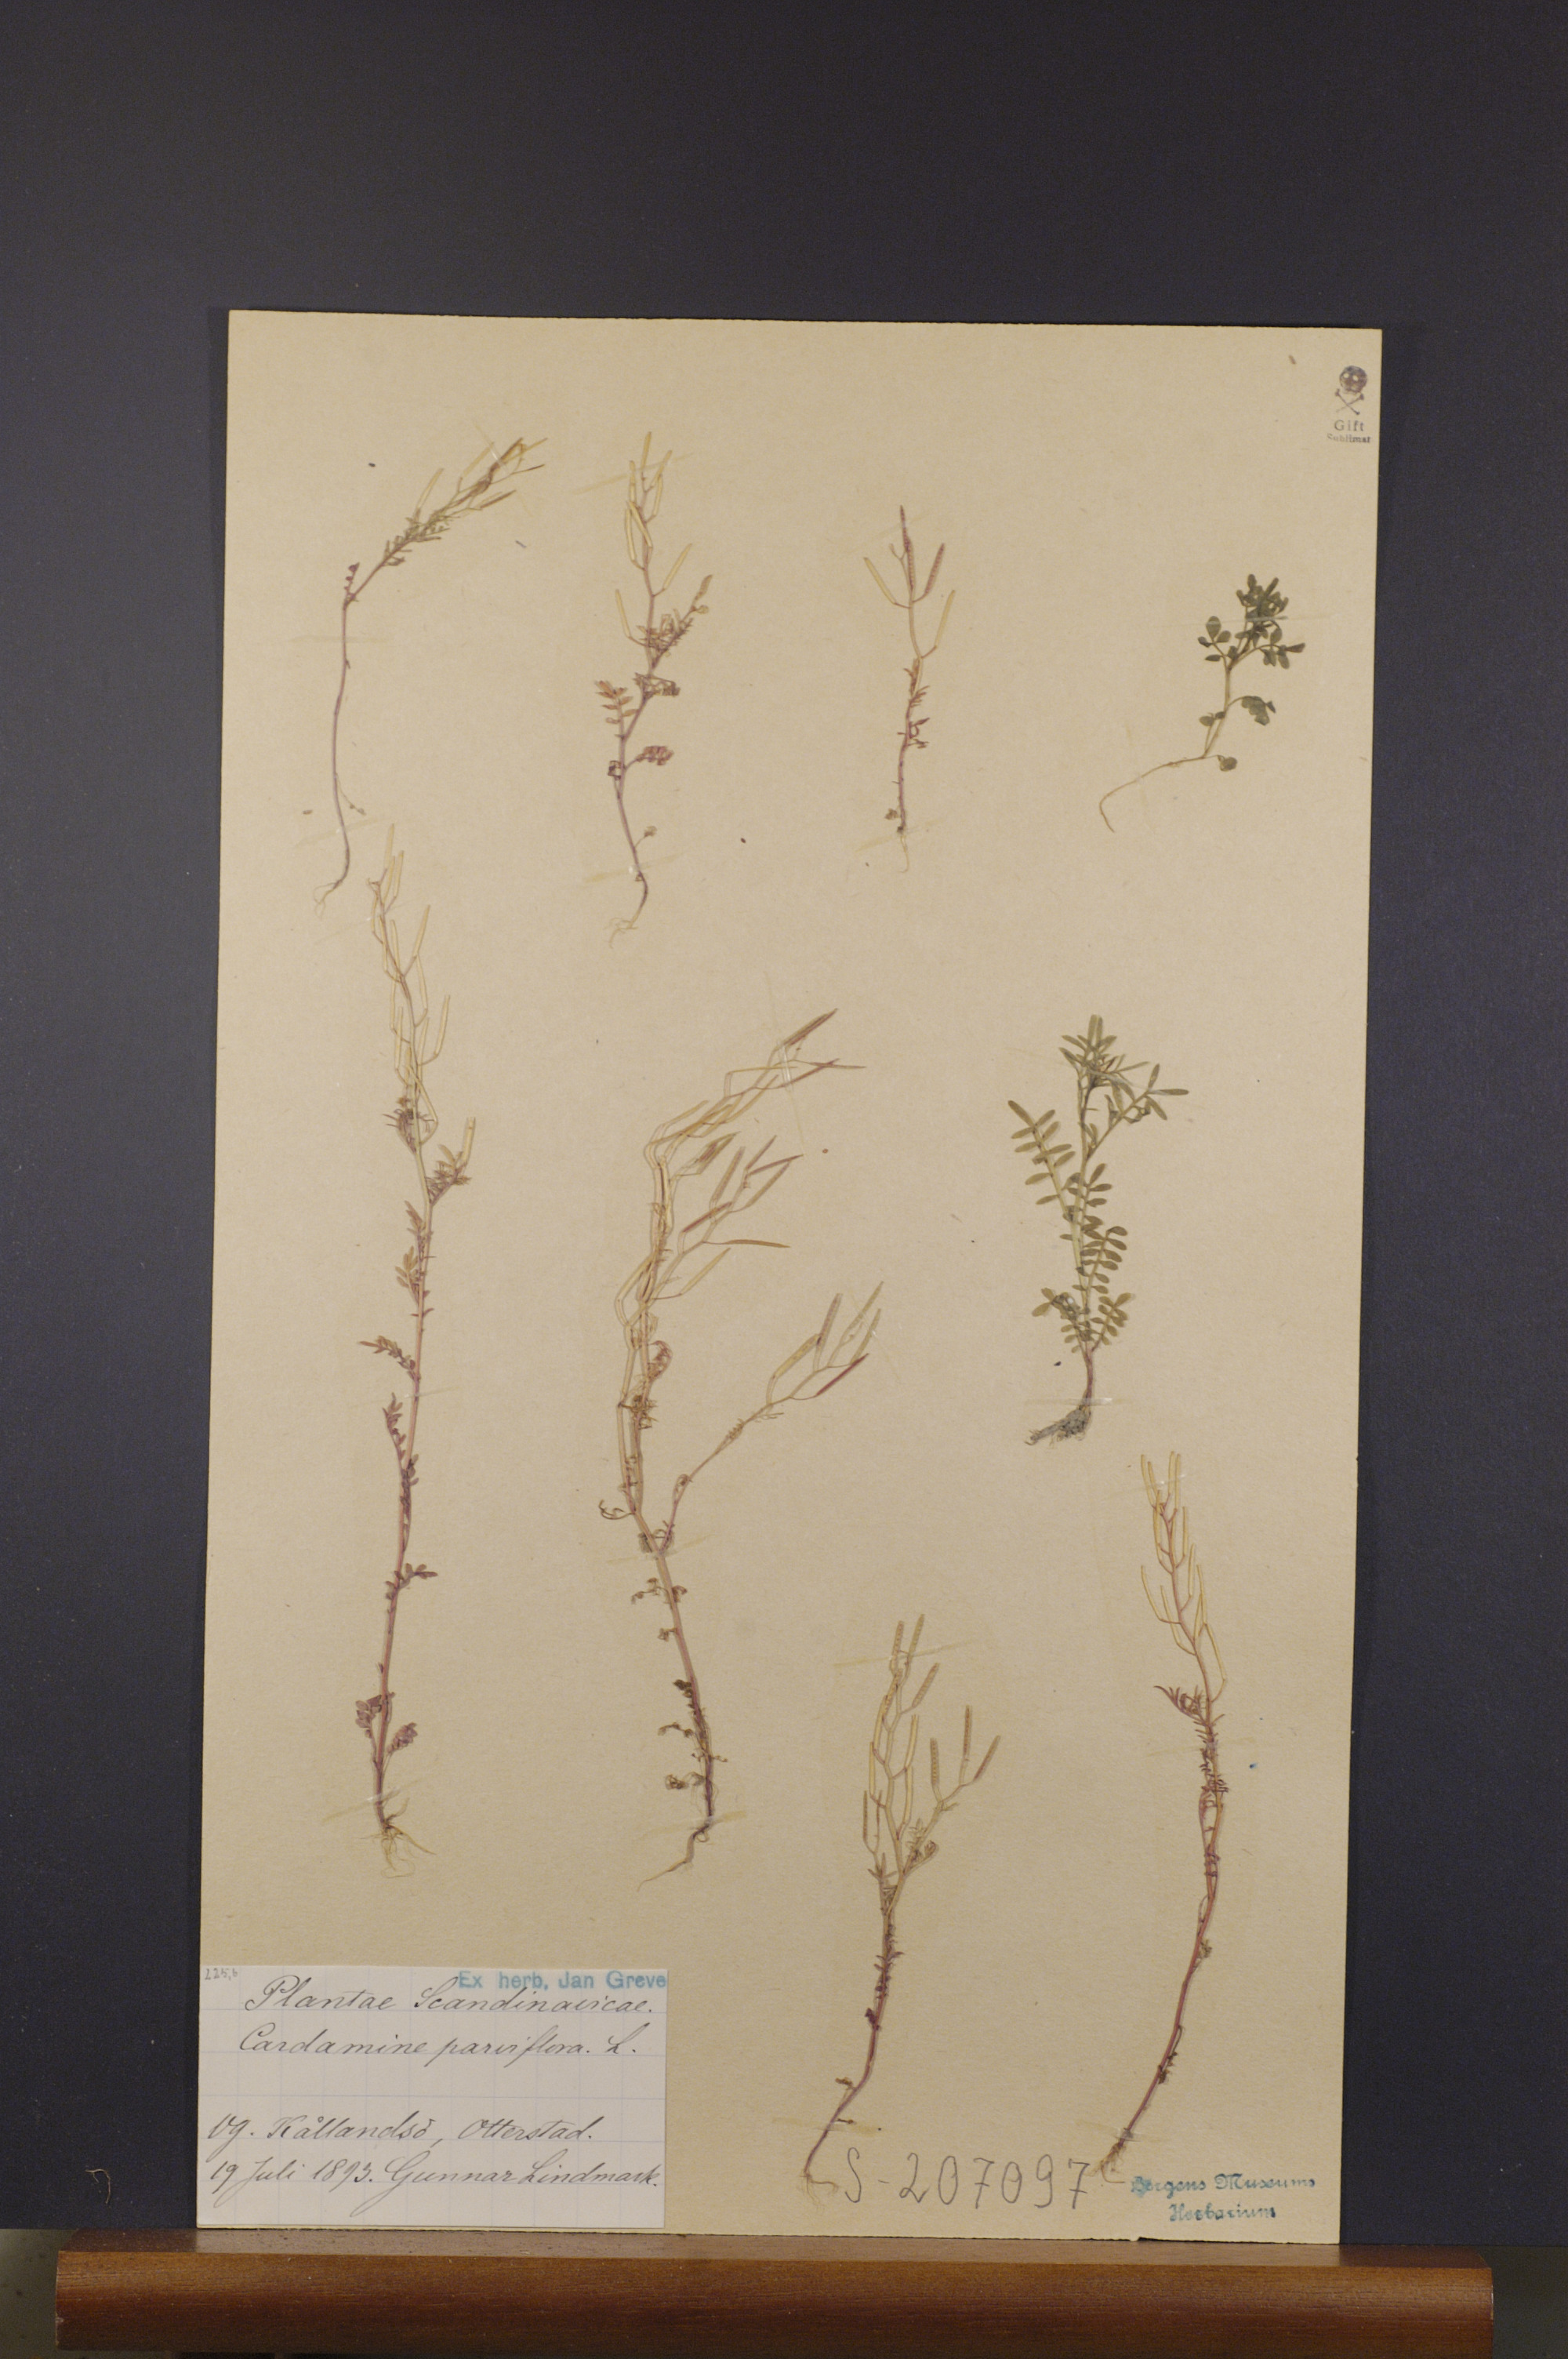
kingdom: Plantae
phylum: Tracheophyta
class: Magnoliopsida
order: Brassicales
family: Brassicaceae
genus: Cardamine
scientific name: Cardamine parviflora
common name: Sand bittercress
